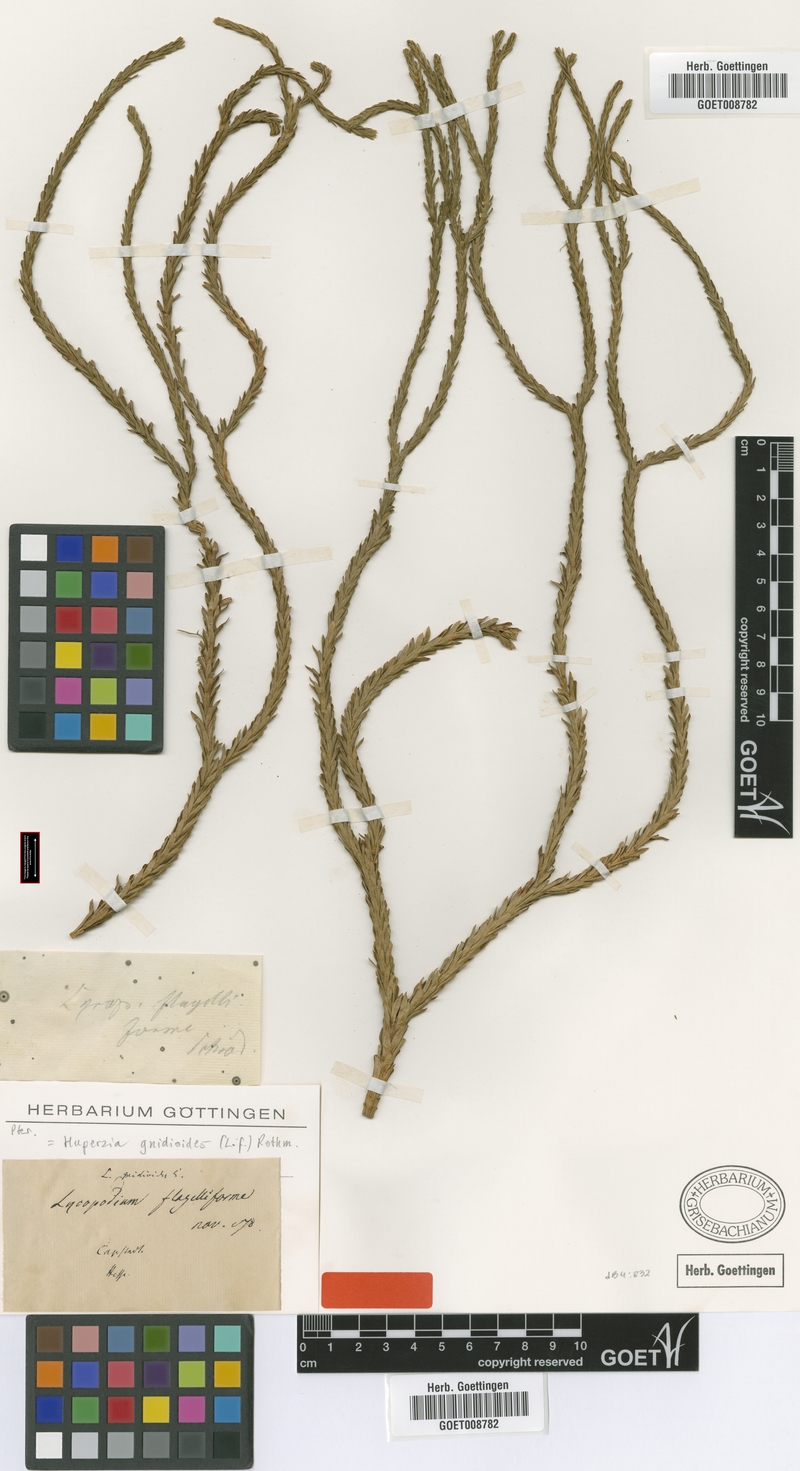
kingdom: Plantae
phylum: Tracheophyta
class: Lycopodiopsida
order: Lycopodiales
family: Lycopodiaceae
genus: Phlegmariurus
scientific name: Phlegmariurus gnidioides
